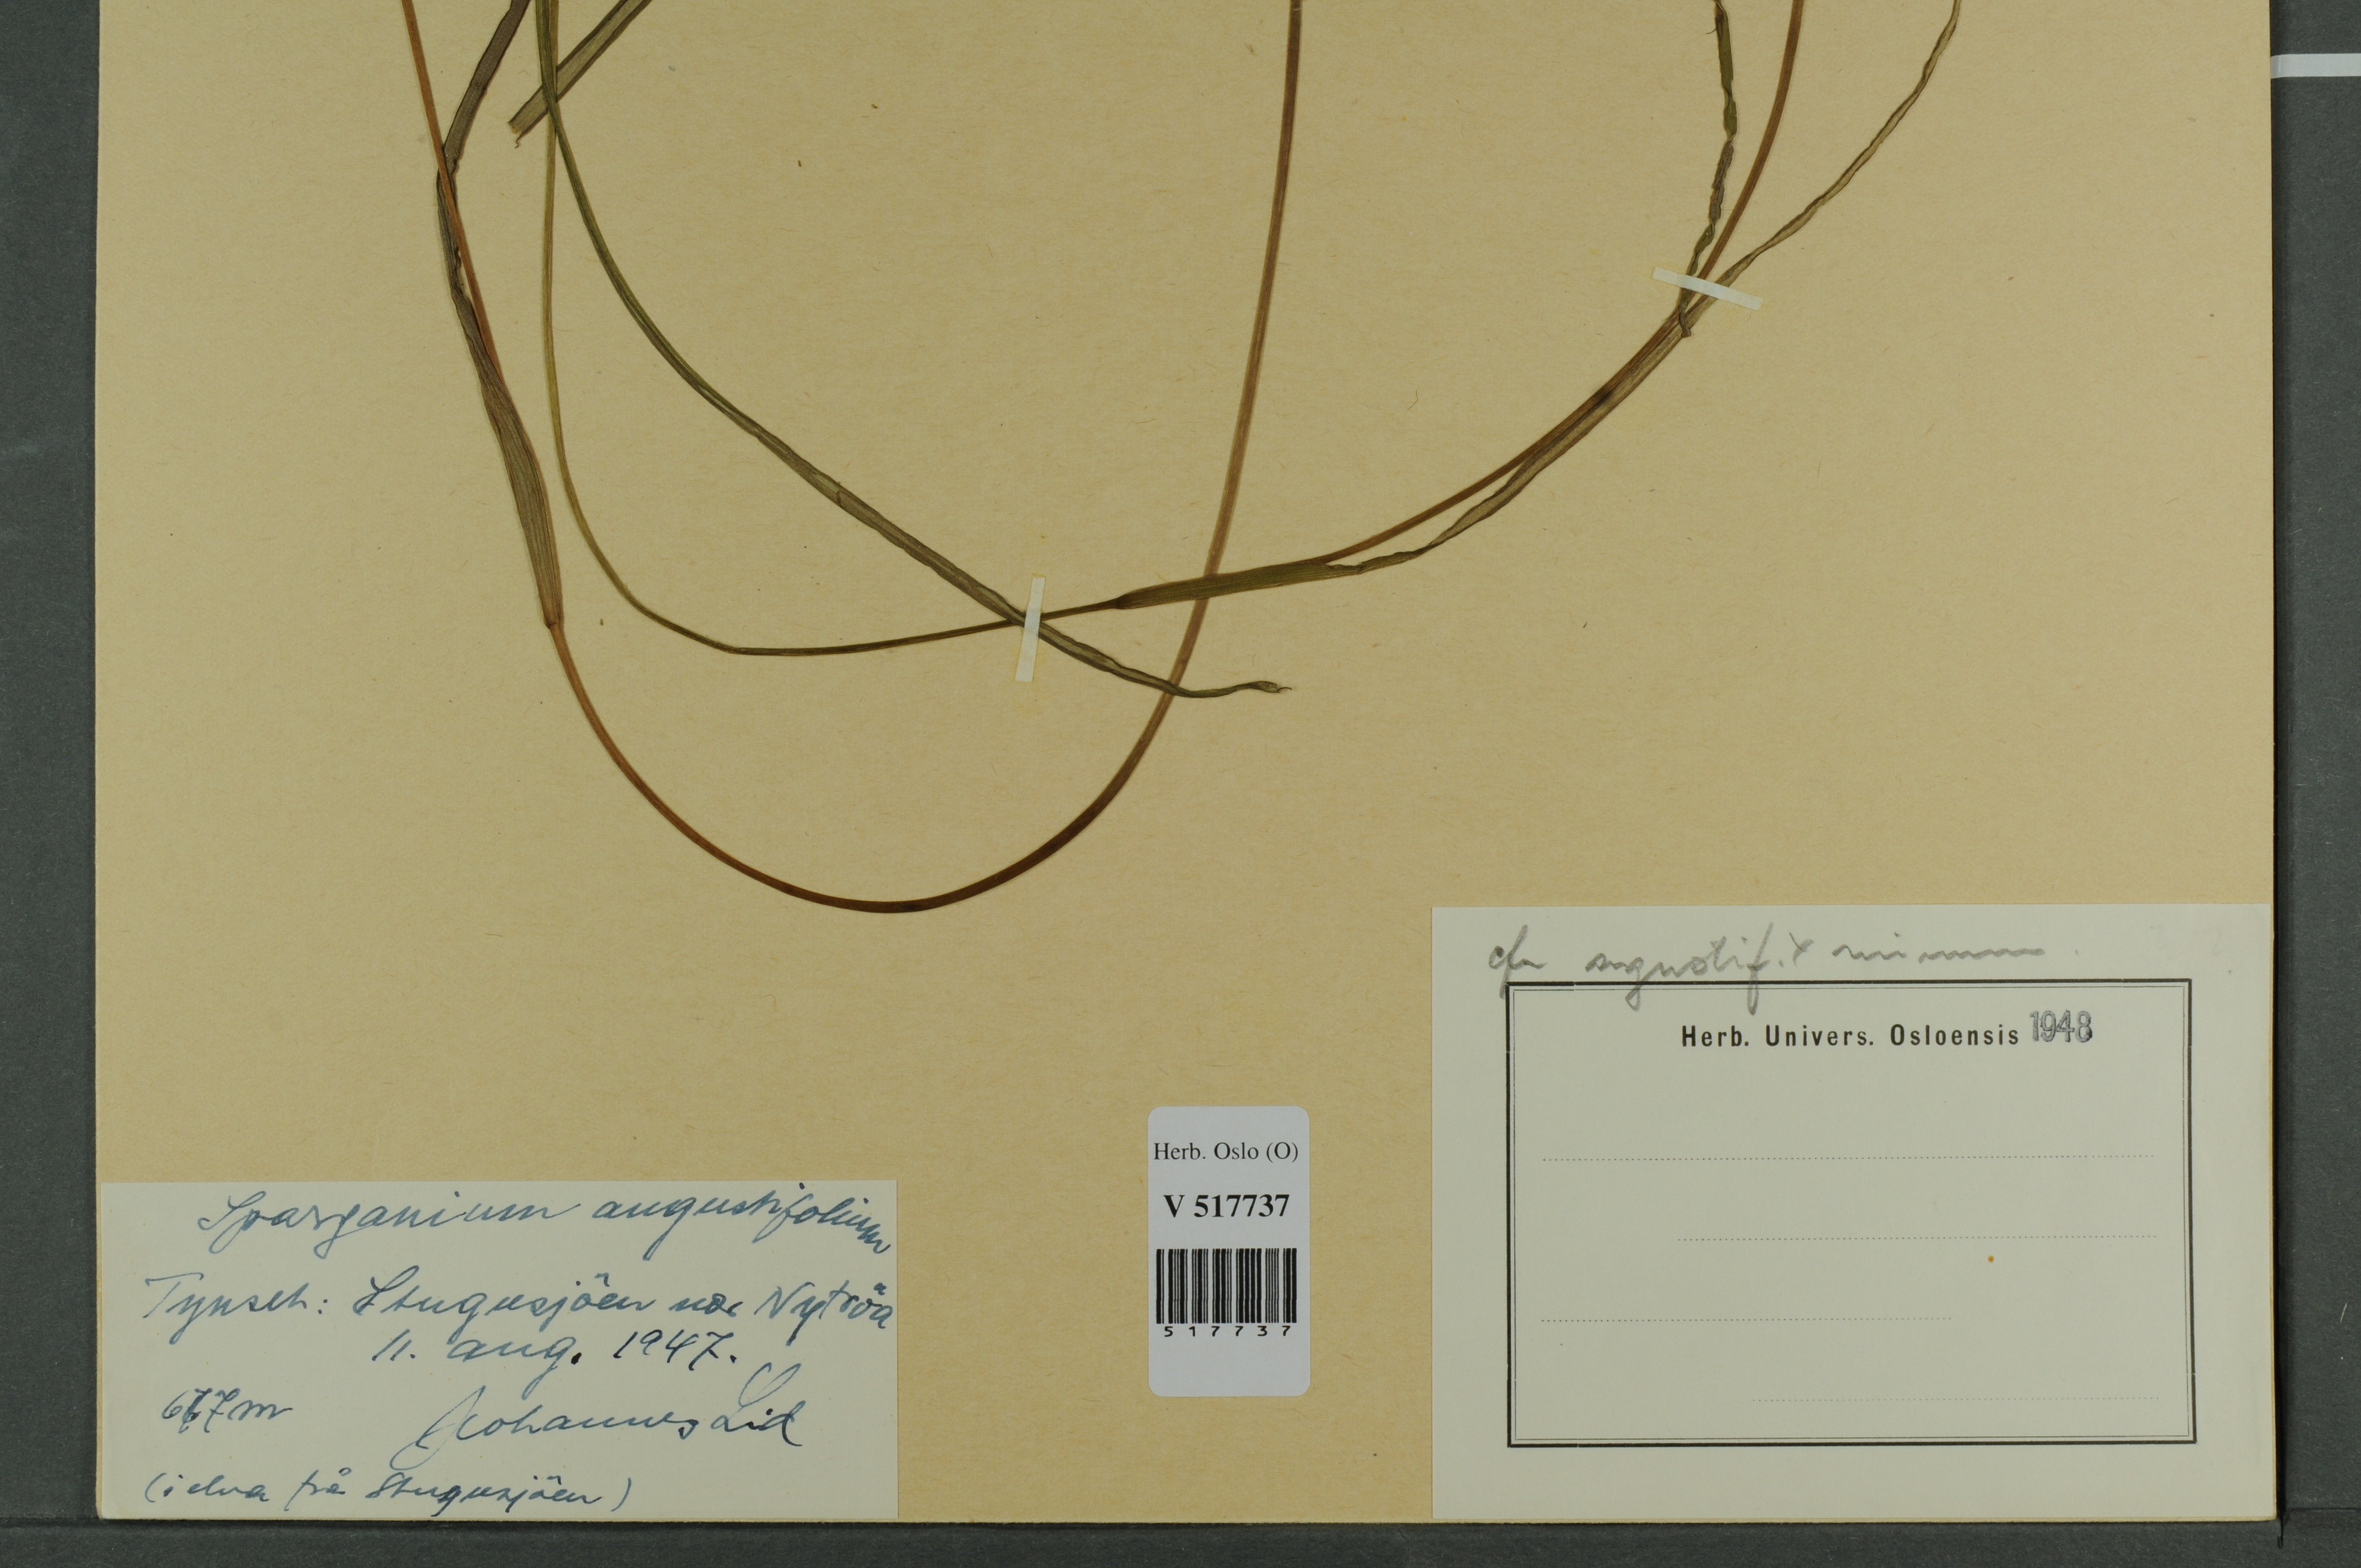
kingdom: Plantae
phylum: Tracheophyta
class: Liliopsida
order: Poales
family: Typhaceae
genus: Sparganium
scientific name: Sparganium
